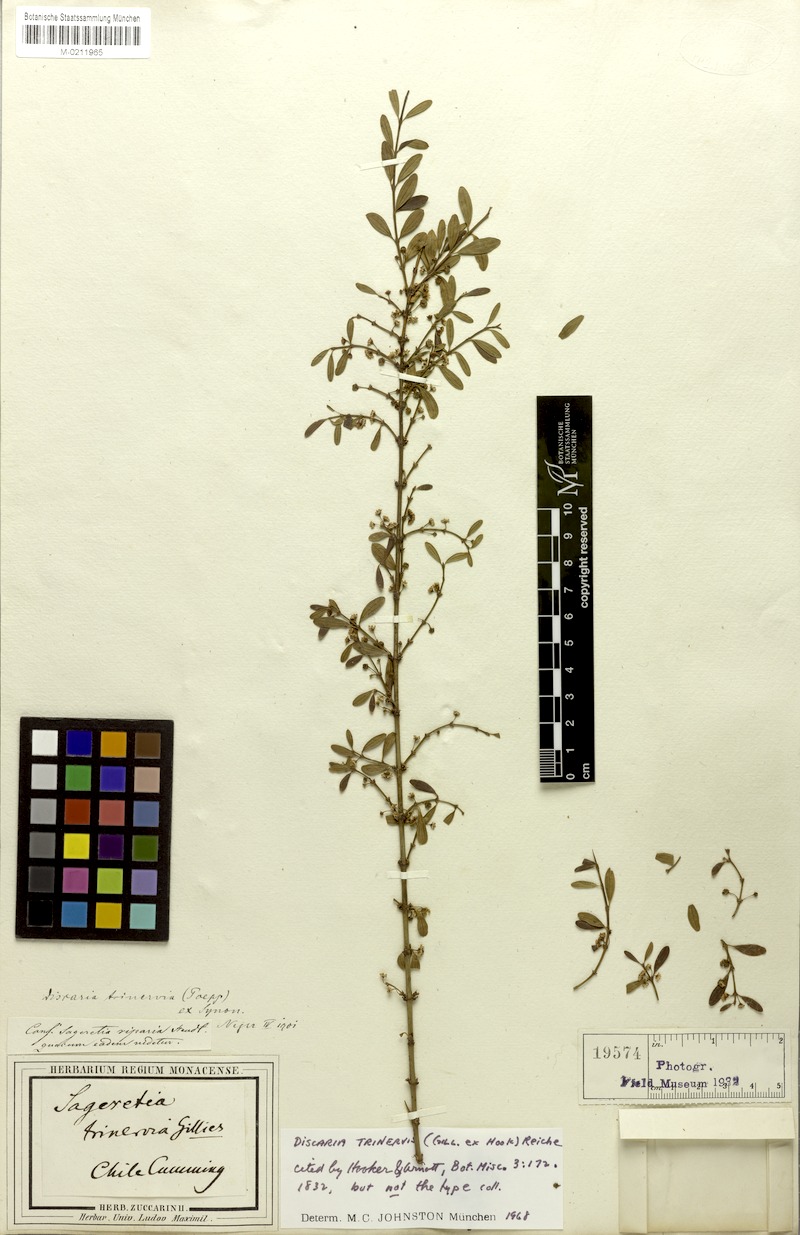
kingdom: Plantae
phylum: Tracheophyta
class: Magnoliopsida
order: Rosales
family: Rhamnaceae
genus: Ochetophila
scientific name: Ochetophila trinervis
